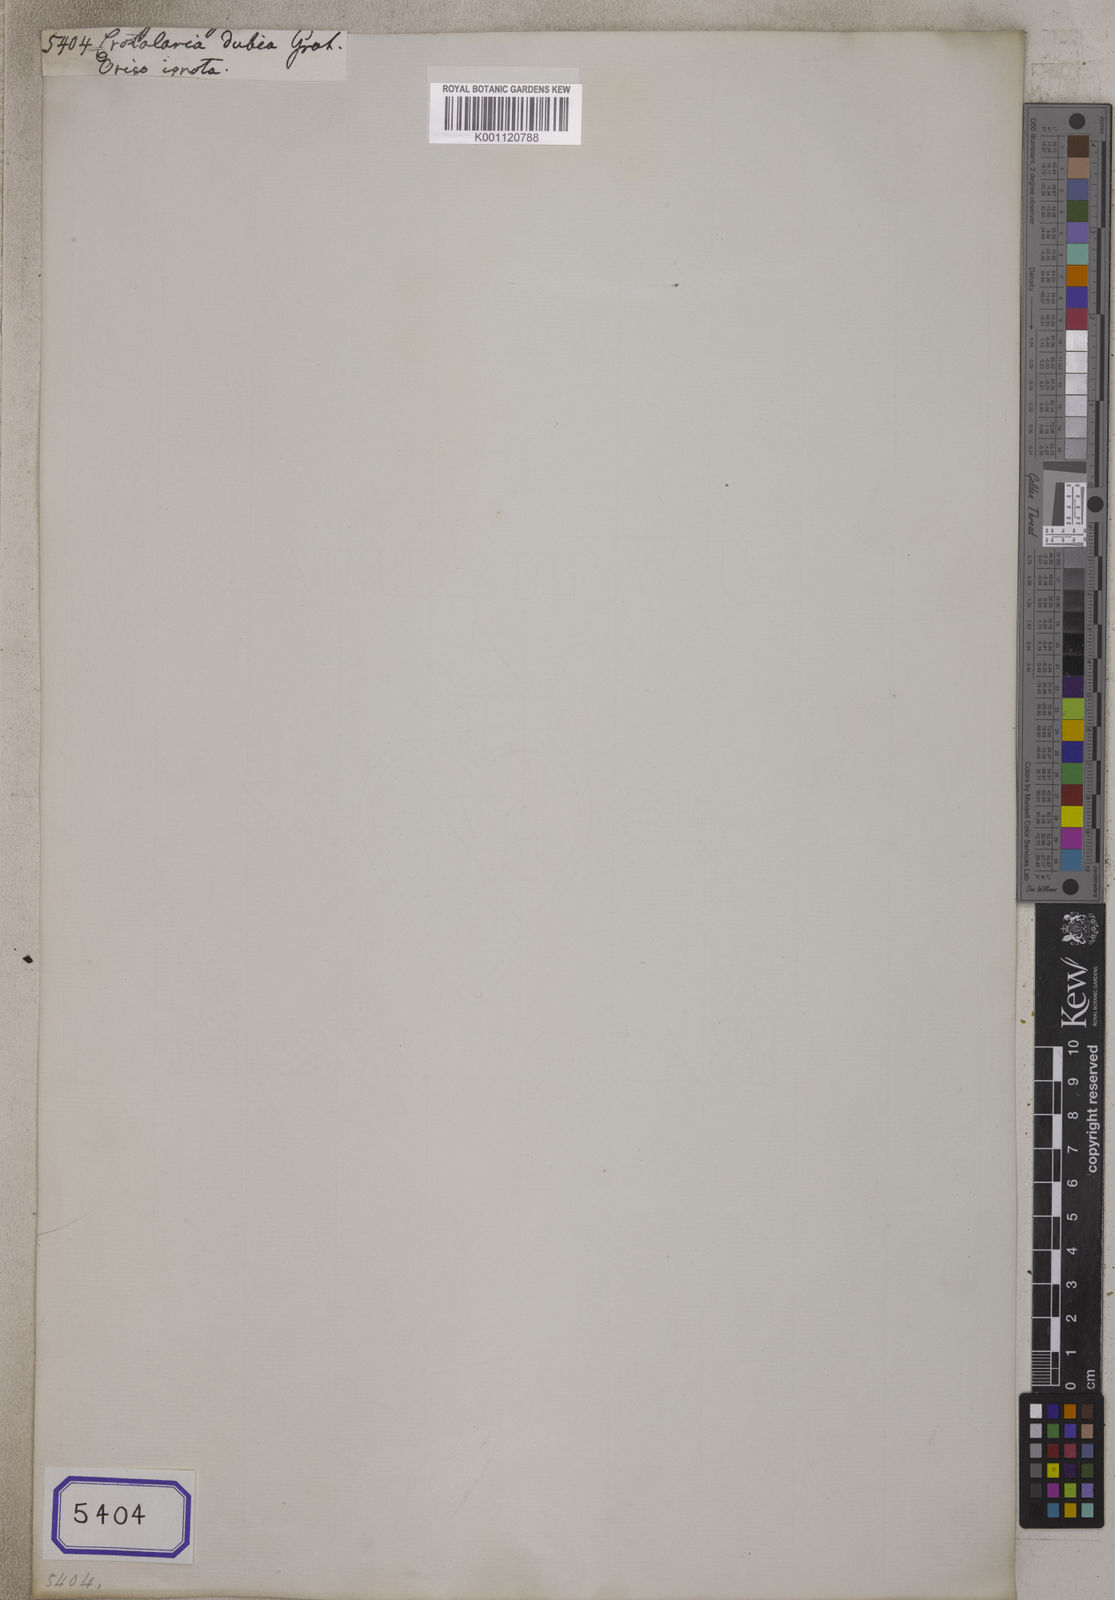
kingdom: Plantae
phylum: Tracheophyta
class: Magnoliopsida
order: Fabales
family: Fabaceae
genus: Crotalaria
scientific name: Crotalaria
